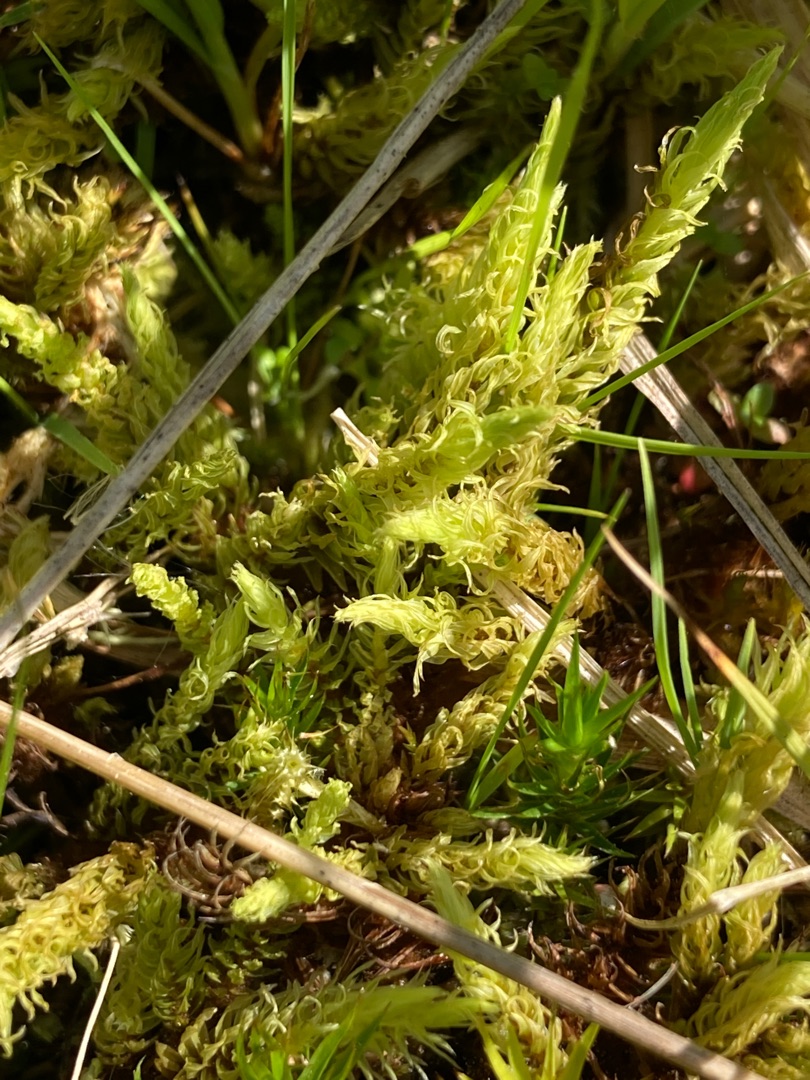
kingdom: Plantae
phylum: Bryophyta
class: Bryopsida
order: Aulacomniales
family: Aulacomniaceae
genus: Aulacomnium
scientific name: Aulacomnium palustre
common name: Almindelig filtmos
